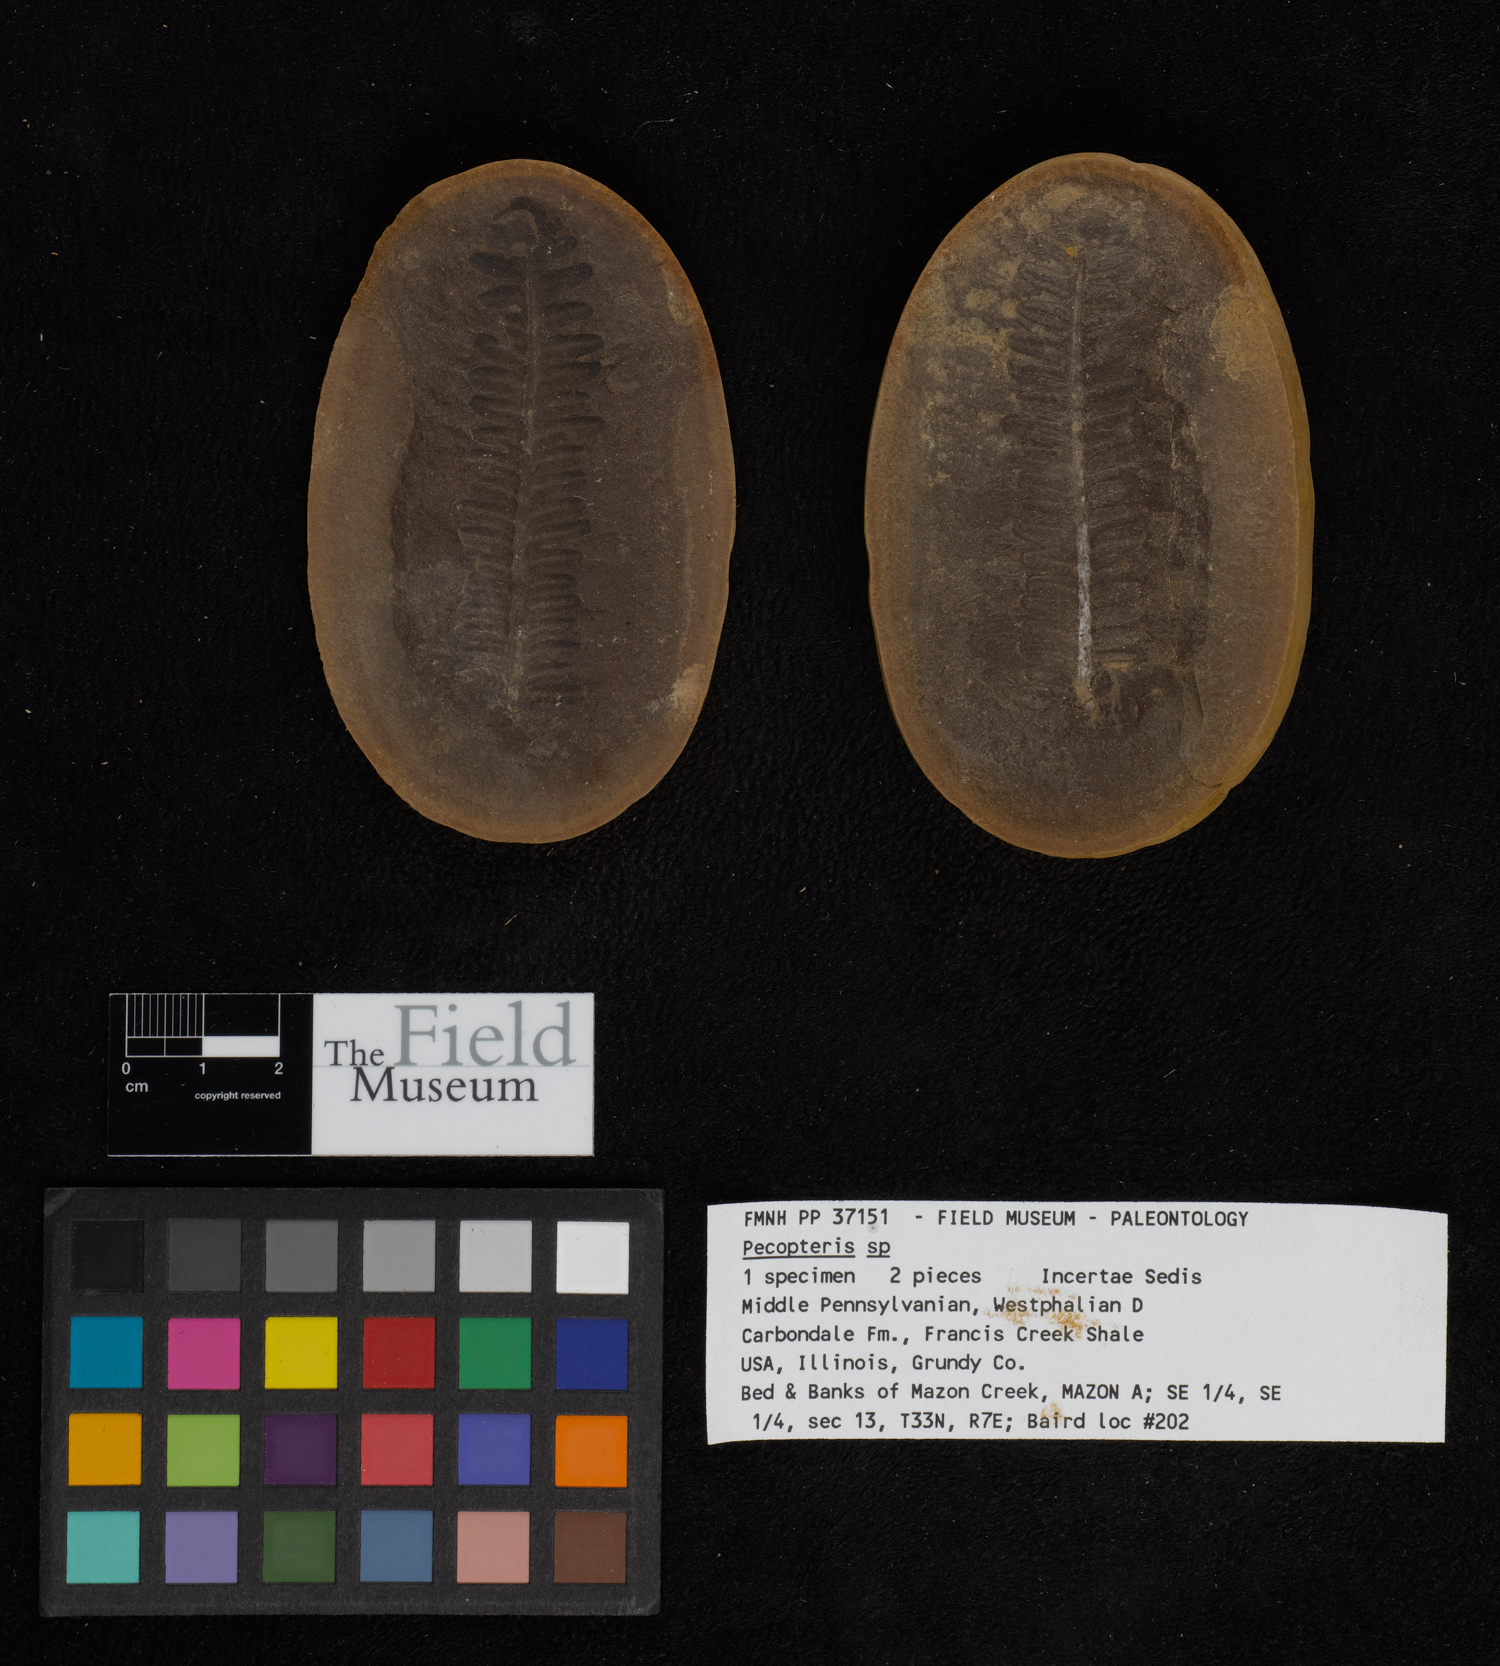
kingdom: Plantae
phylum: Tracheophyta
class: Polypodiopsida
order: Marattiales
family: Asterothecaceae
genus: Pecopteris
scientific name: Pecopteris
